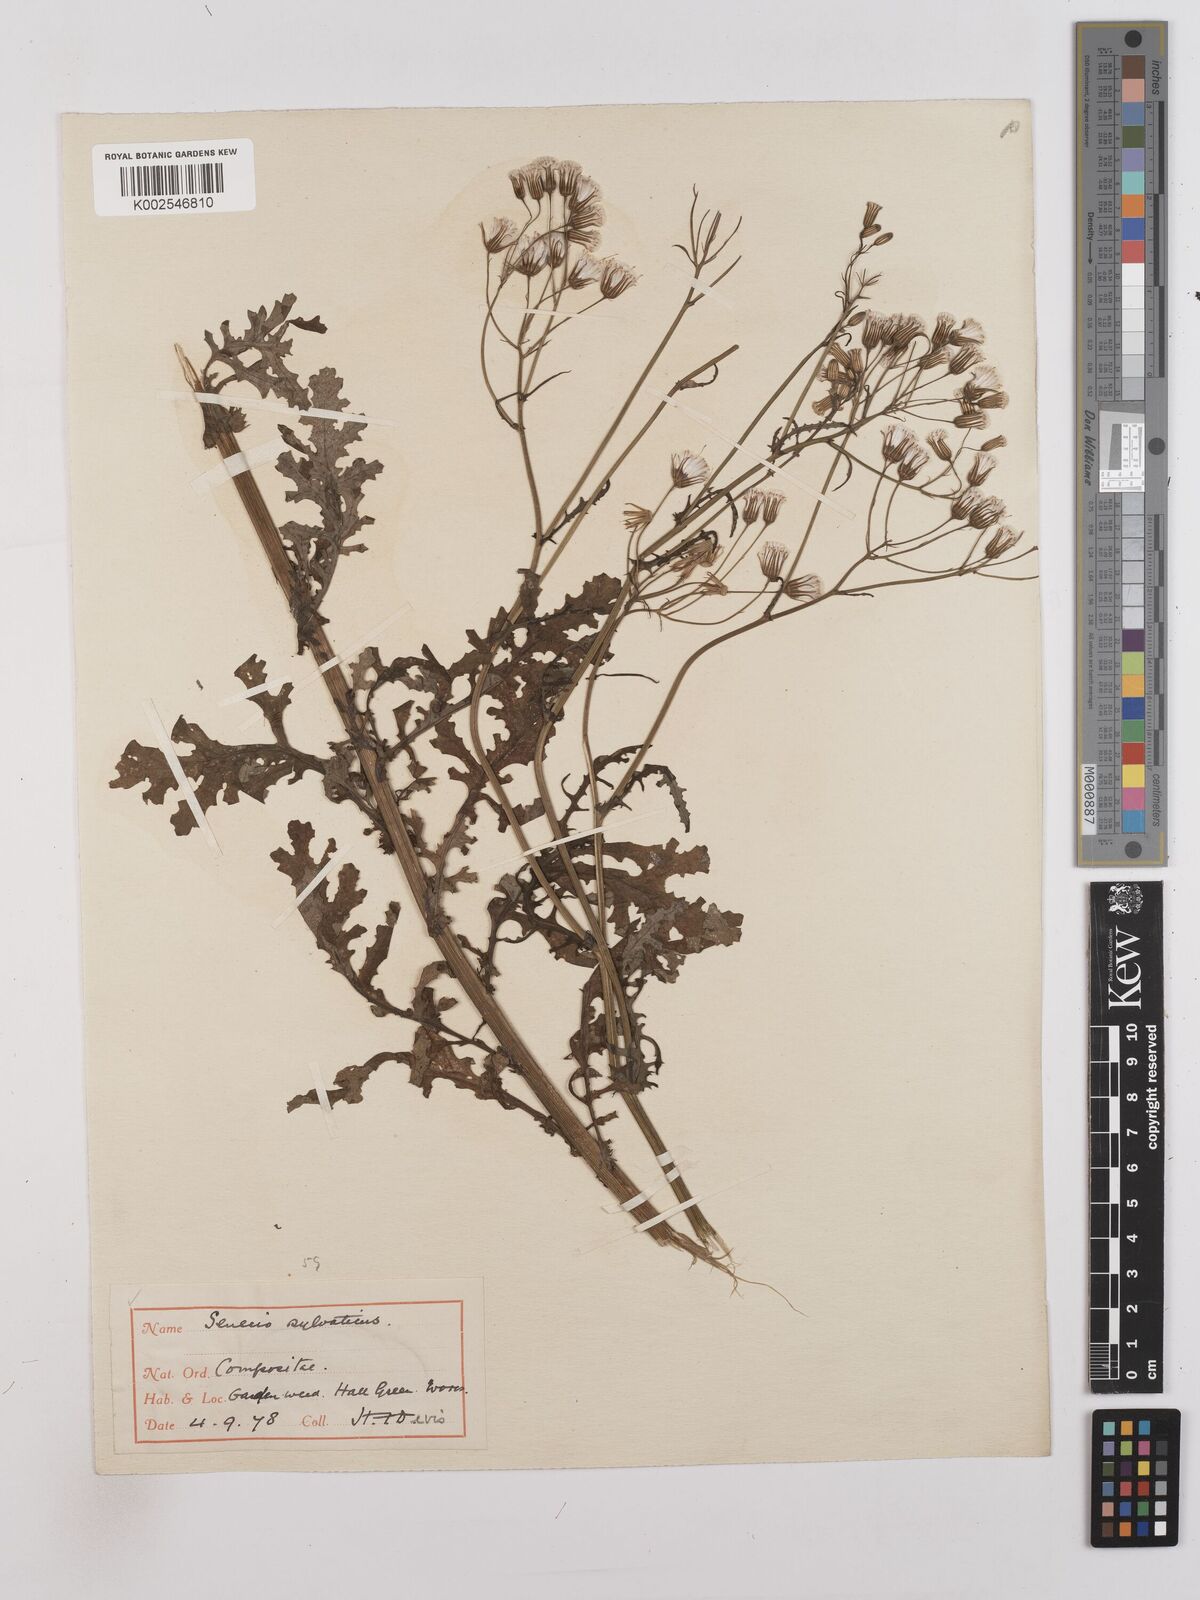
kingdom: Plantae
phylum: Tracheophyta
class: Magnoliopsida
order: Asterales
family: Asteraceae
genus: Senecio
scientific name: Senecio sylvaticus
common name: Woodland ragwort
